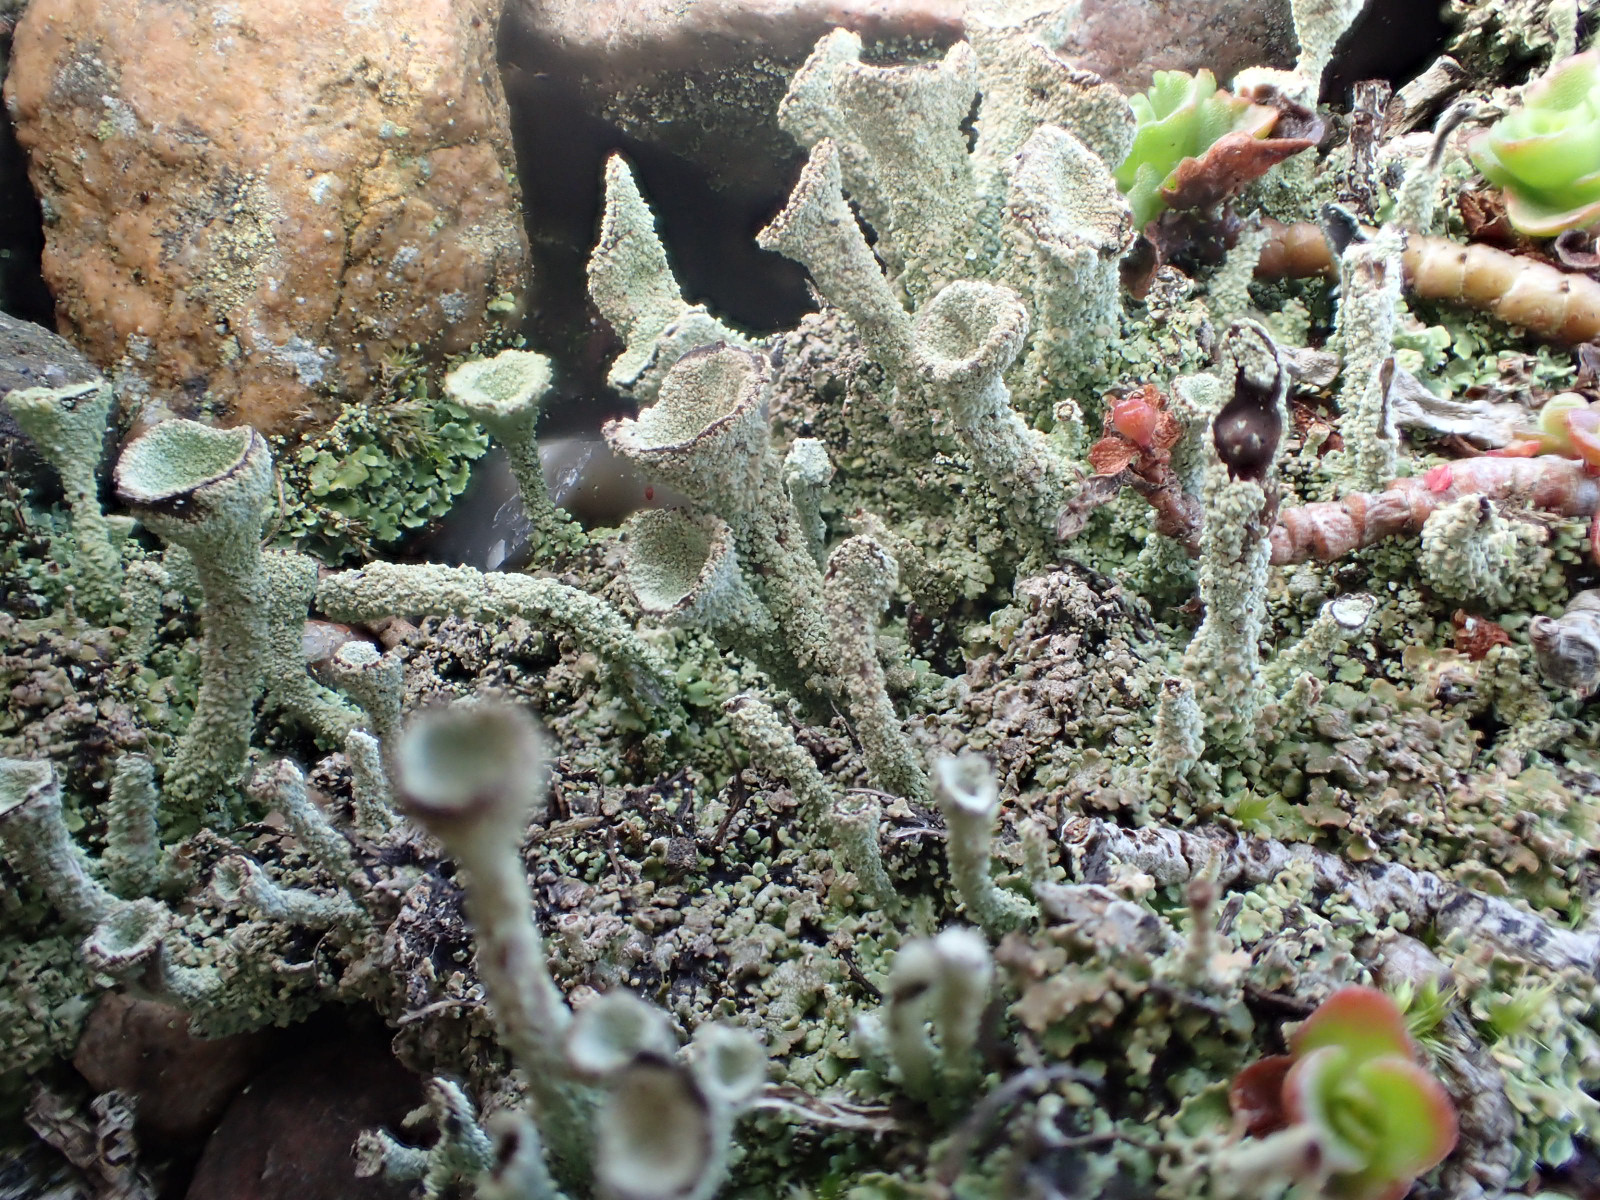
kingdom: Fungi
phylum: Ascomycota
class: Lecanoromycetes
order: Lecanorales
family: Cladoniaceae
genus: Cladonia
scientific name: Cladonia
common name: brungrøn bægerlav
